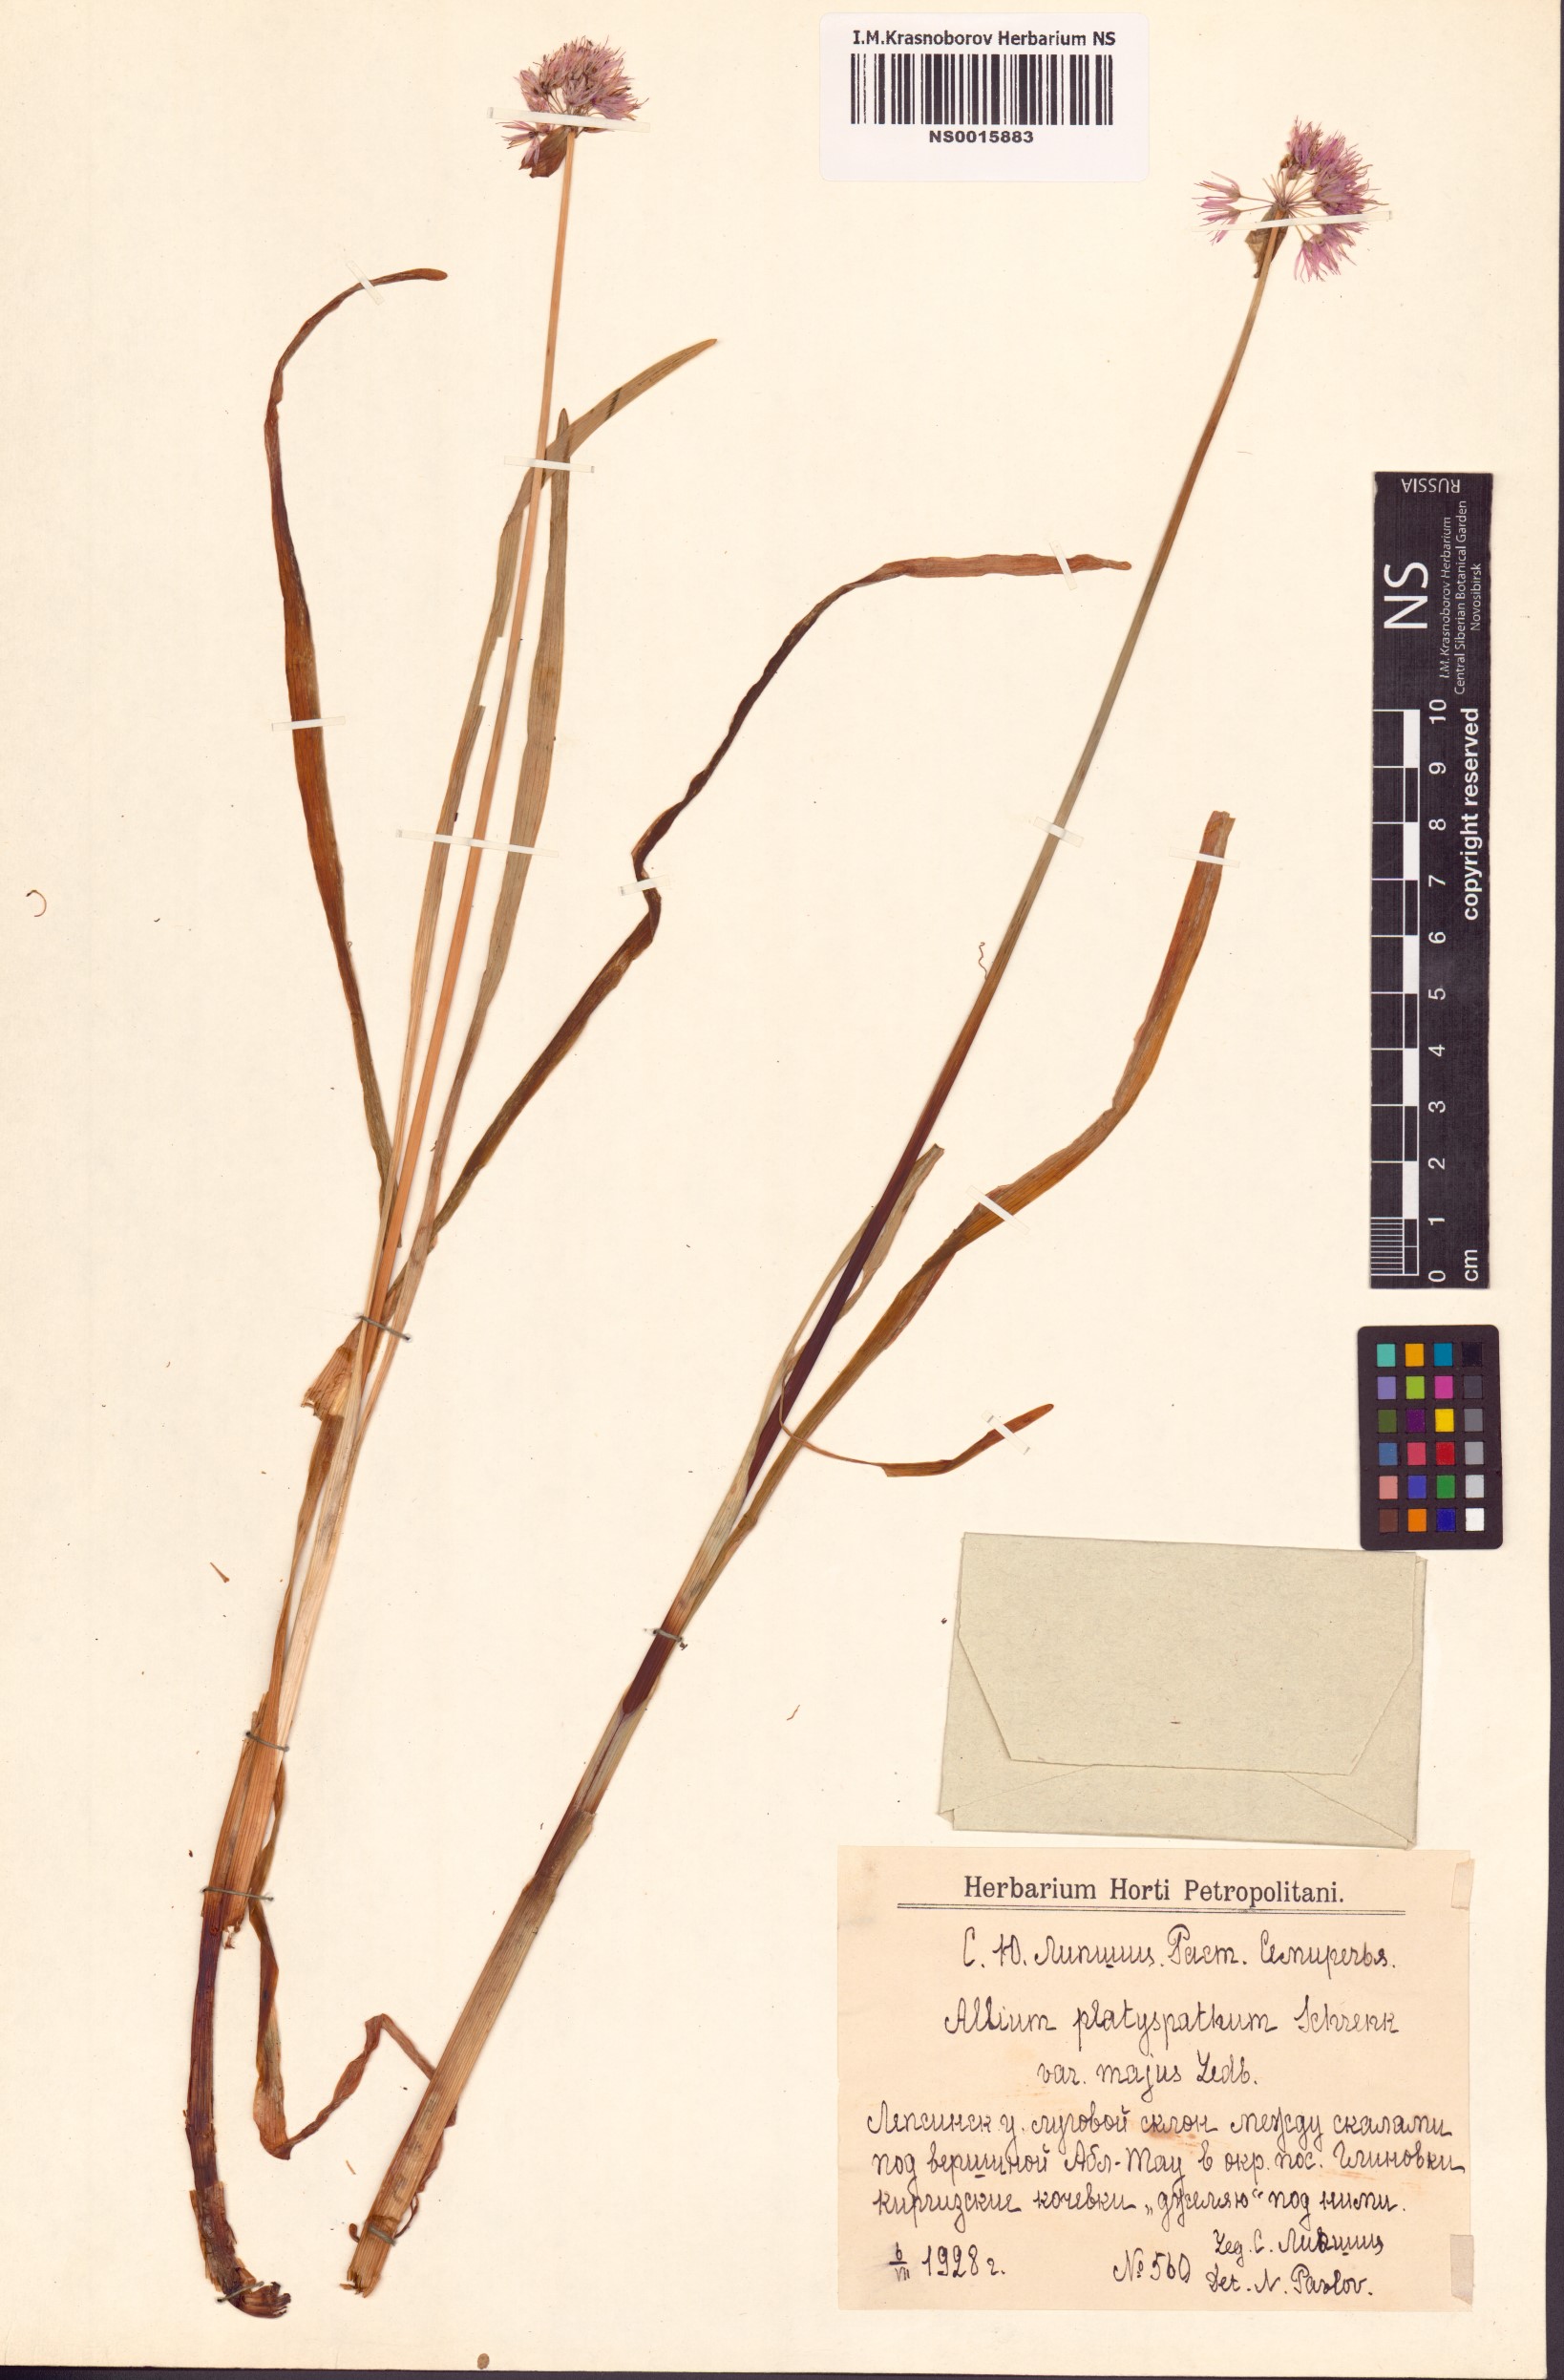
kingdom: Plantae
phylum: Tracheophyta
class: Liliopsida
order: Asparagales
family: Amaryllidaceae
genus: Allium
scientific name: Allium platyspathum
